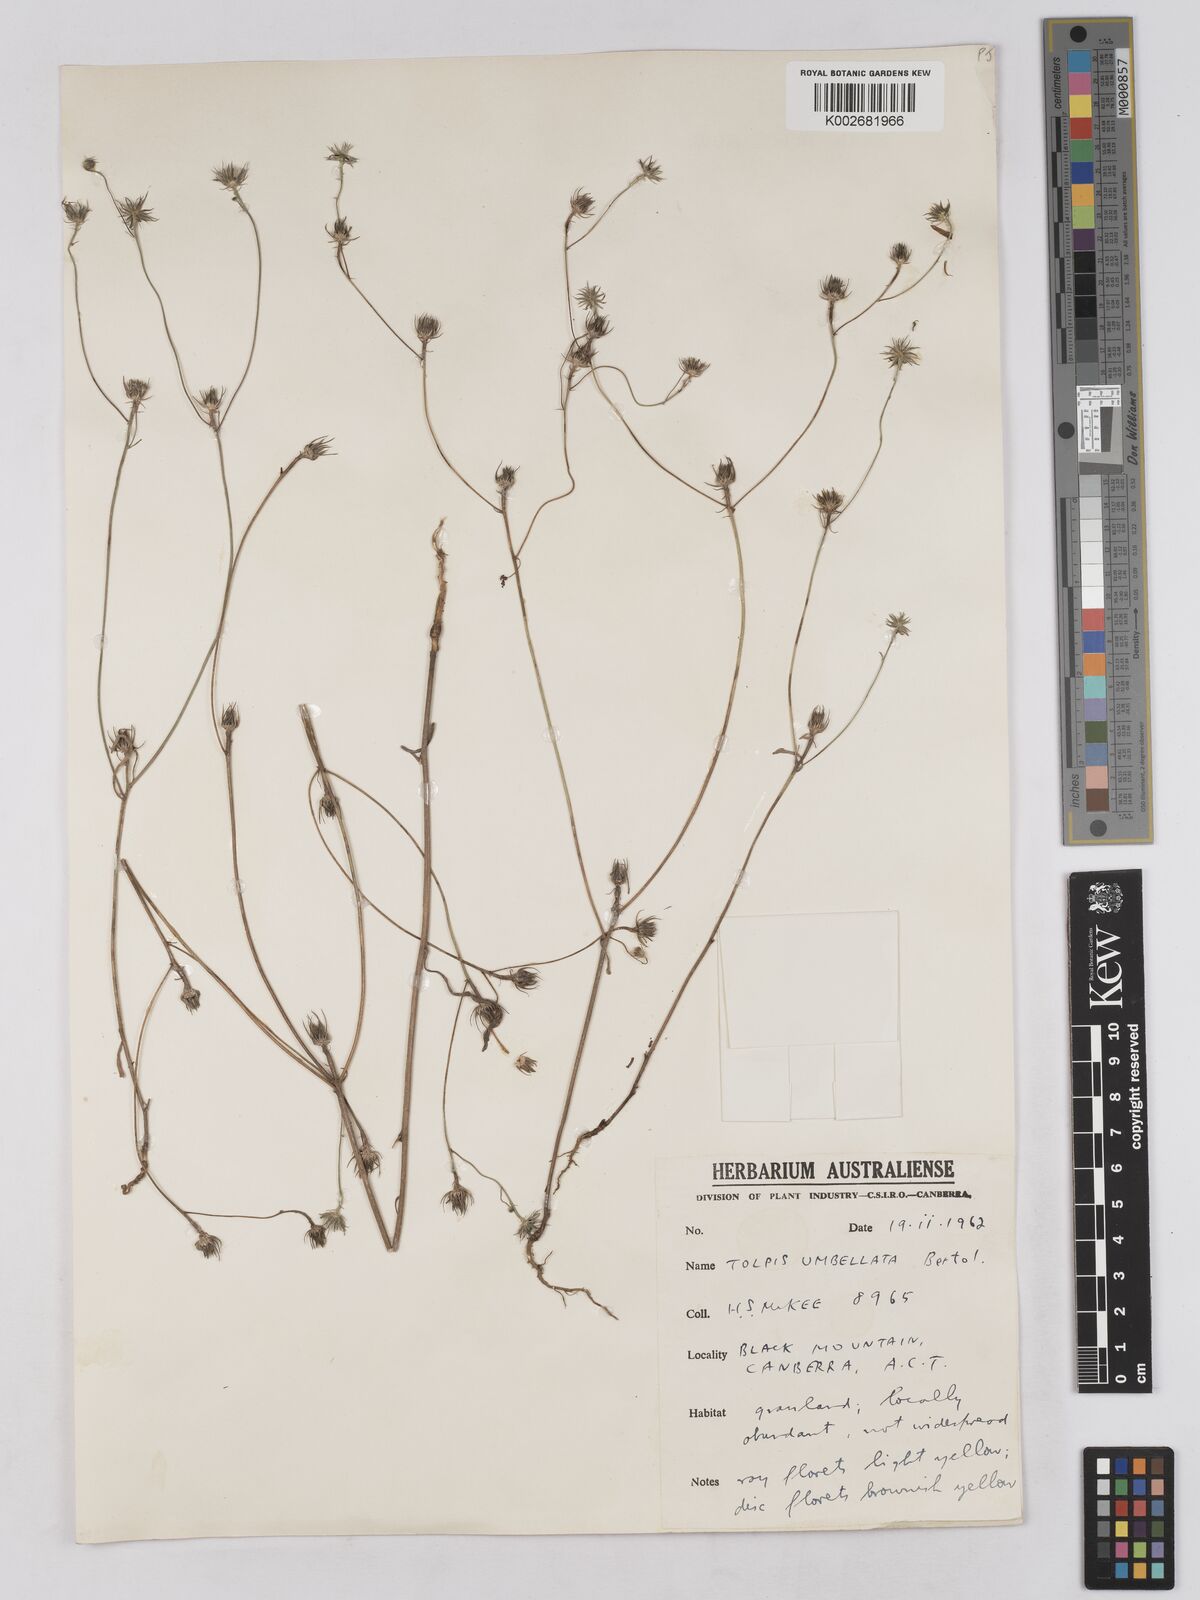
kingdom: Plantae
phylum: Tracheophyta
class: Magnoliopsida
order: Asterales
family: Asteraceae
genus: Tolpis
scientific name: Tolpis umbellata
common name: Yellow hawkweed
